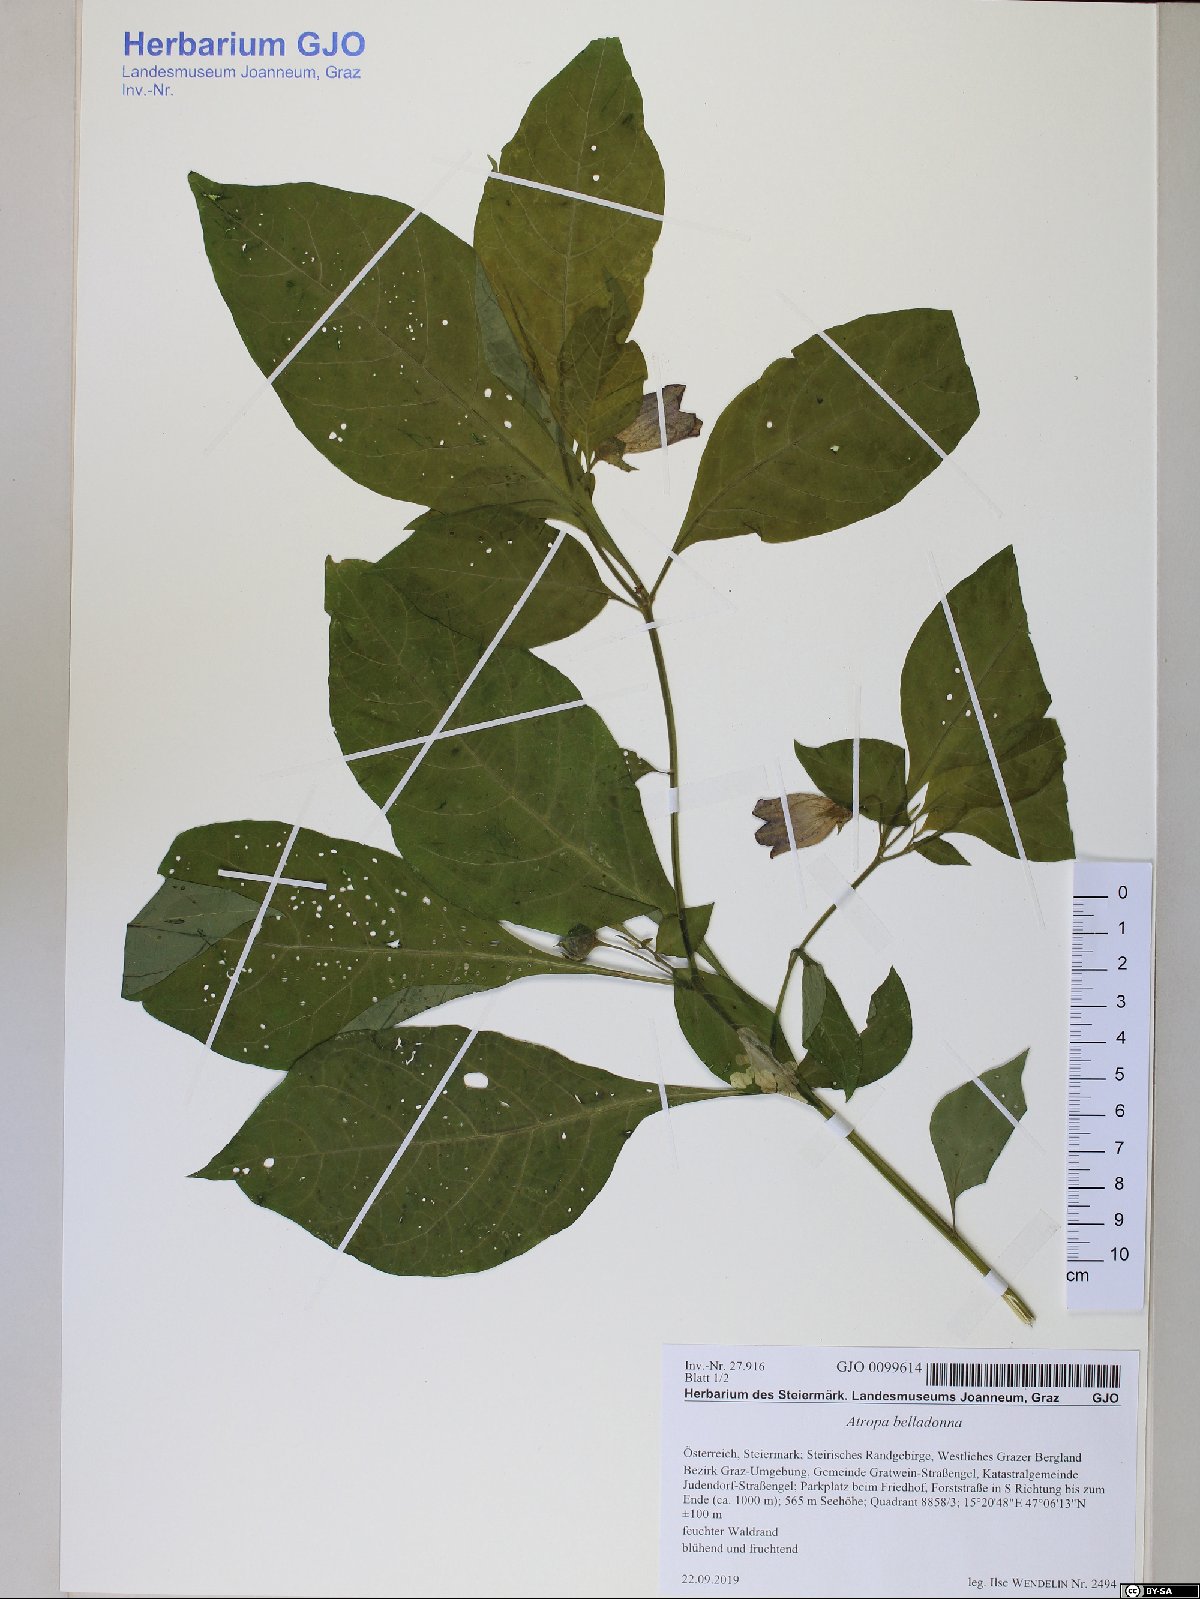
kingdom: Plantae
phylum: Tracheophyta
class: Magnoliopsida
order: Solanales
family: Solanaceae
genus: Atropa
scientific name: Atropa belladonna
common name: Deadly nightshade
